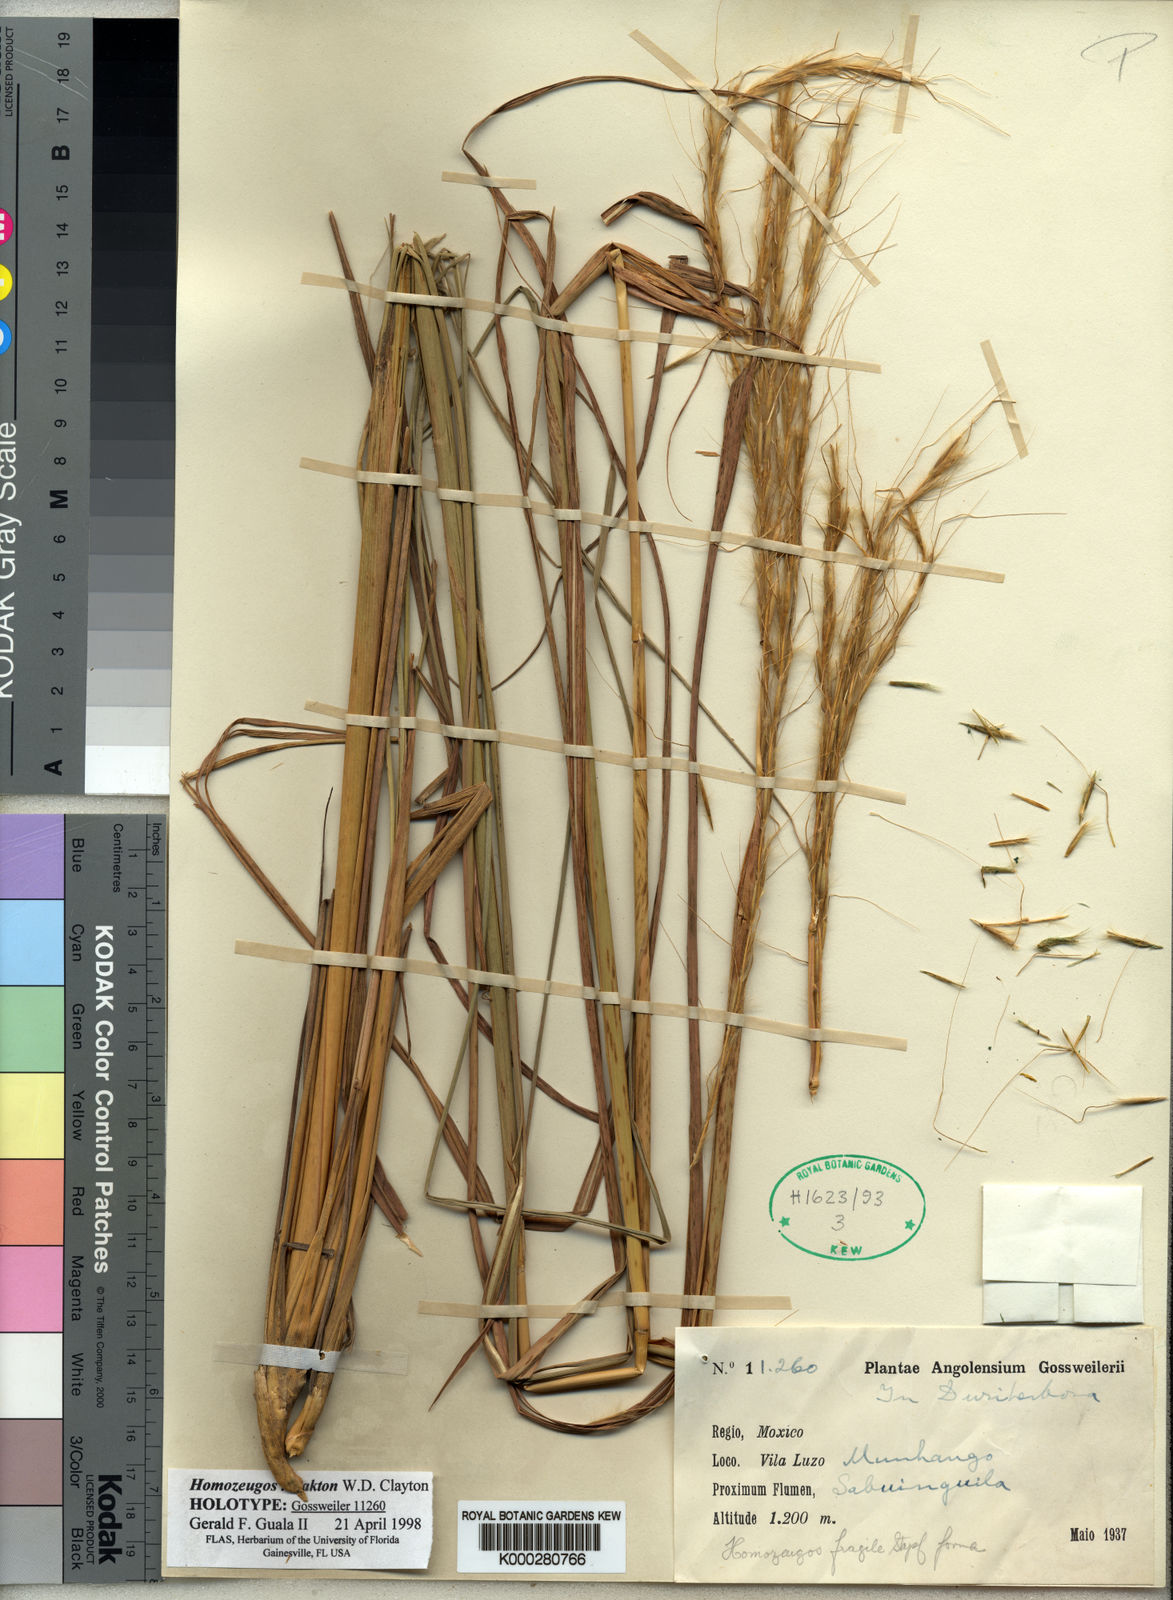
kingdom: Plantae
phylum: Tracheophyta
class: Liliopsida
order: Poales
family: Poaceae
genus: Homozeugos
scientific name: Homozeugos katakton
